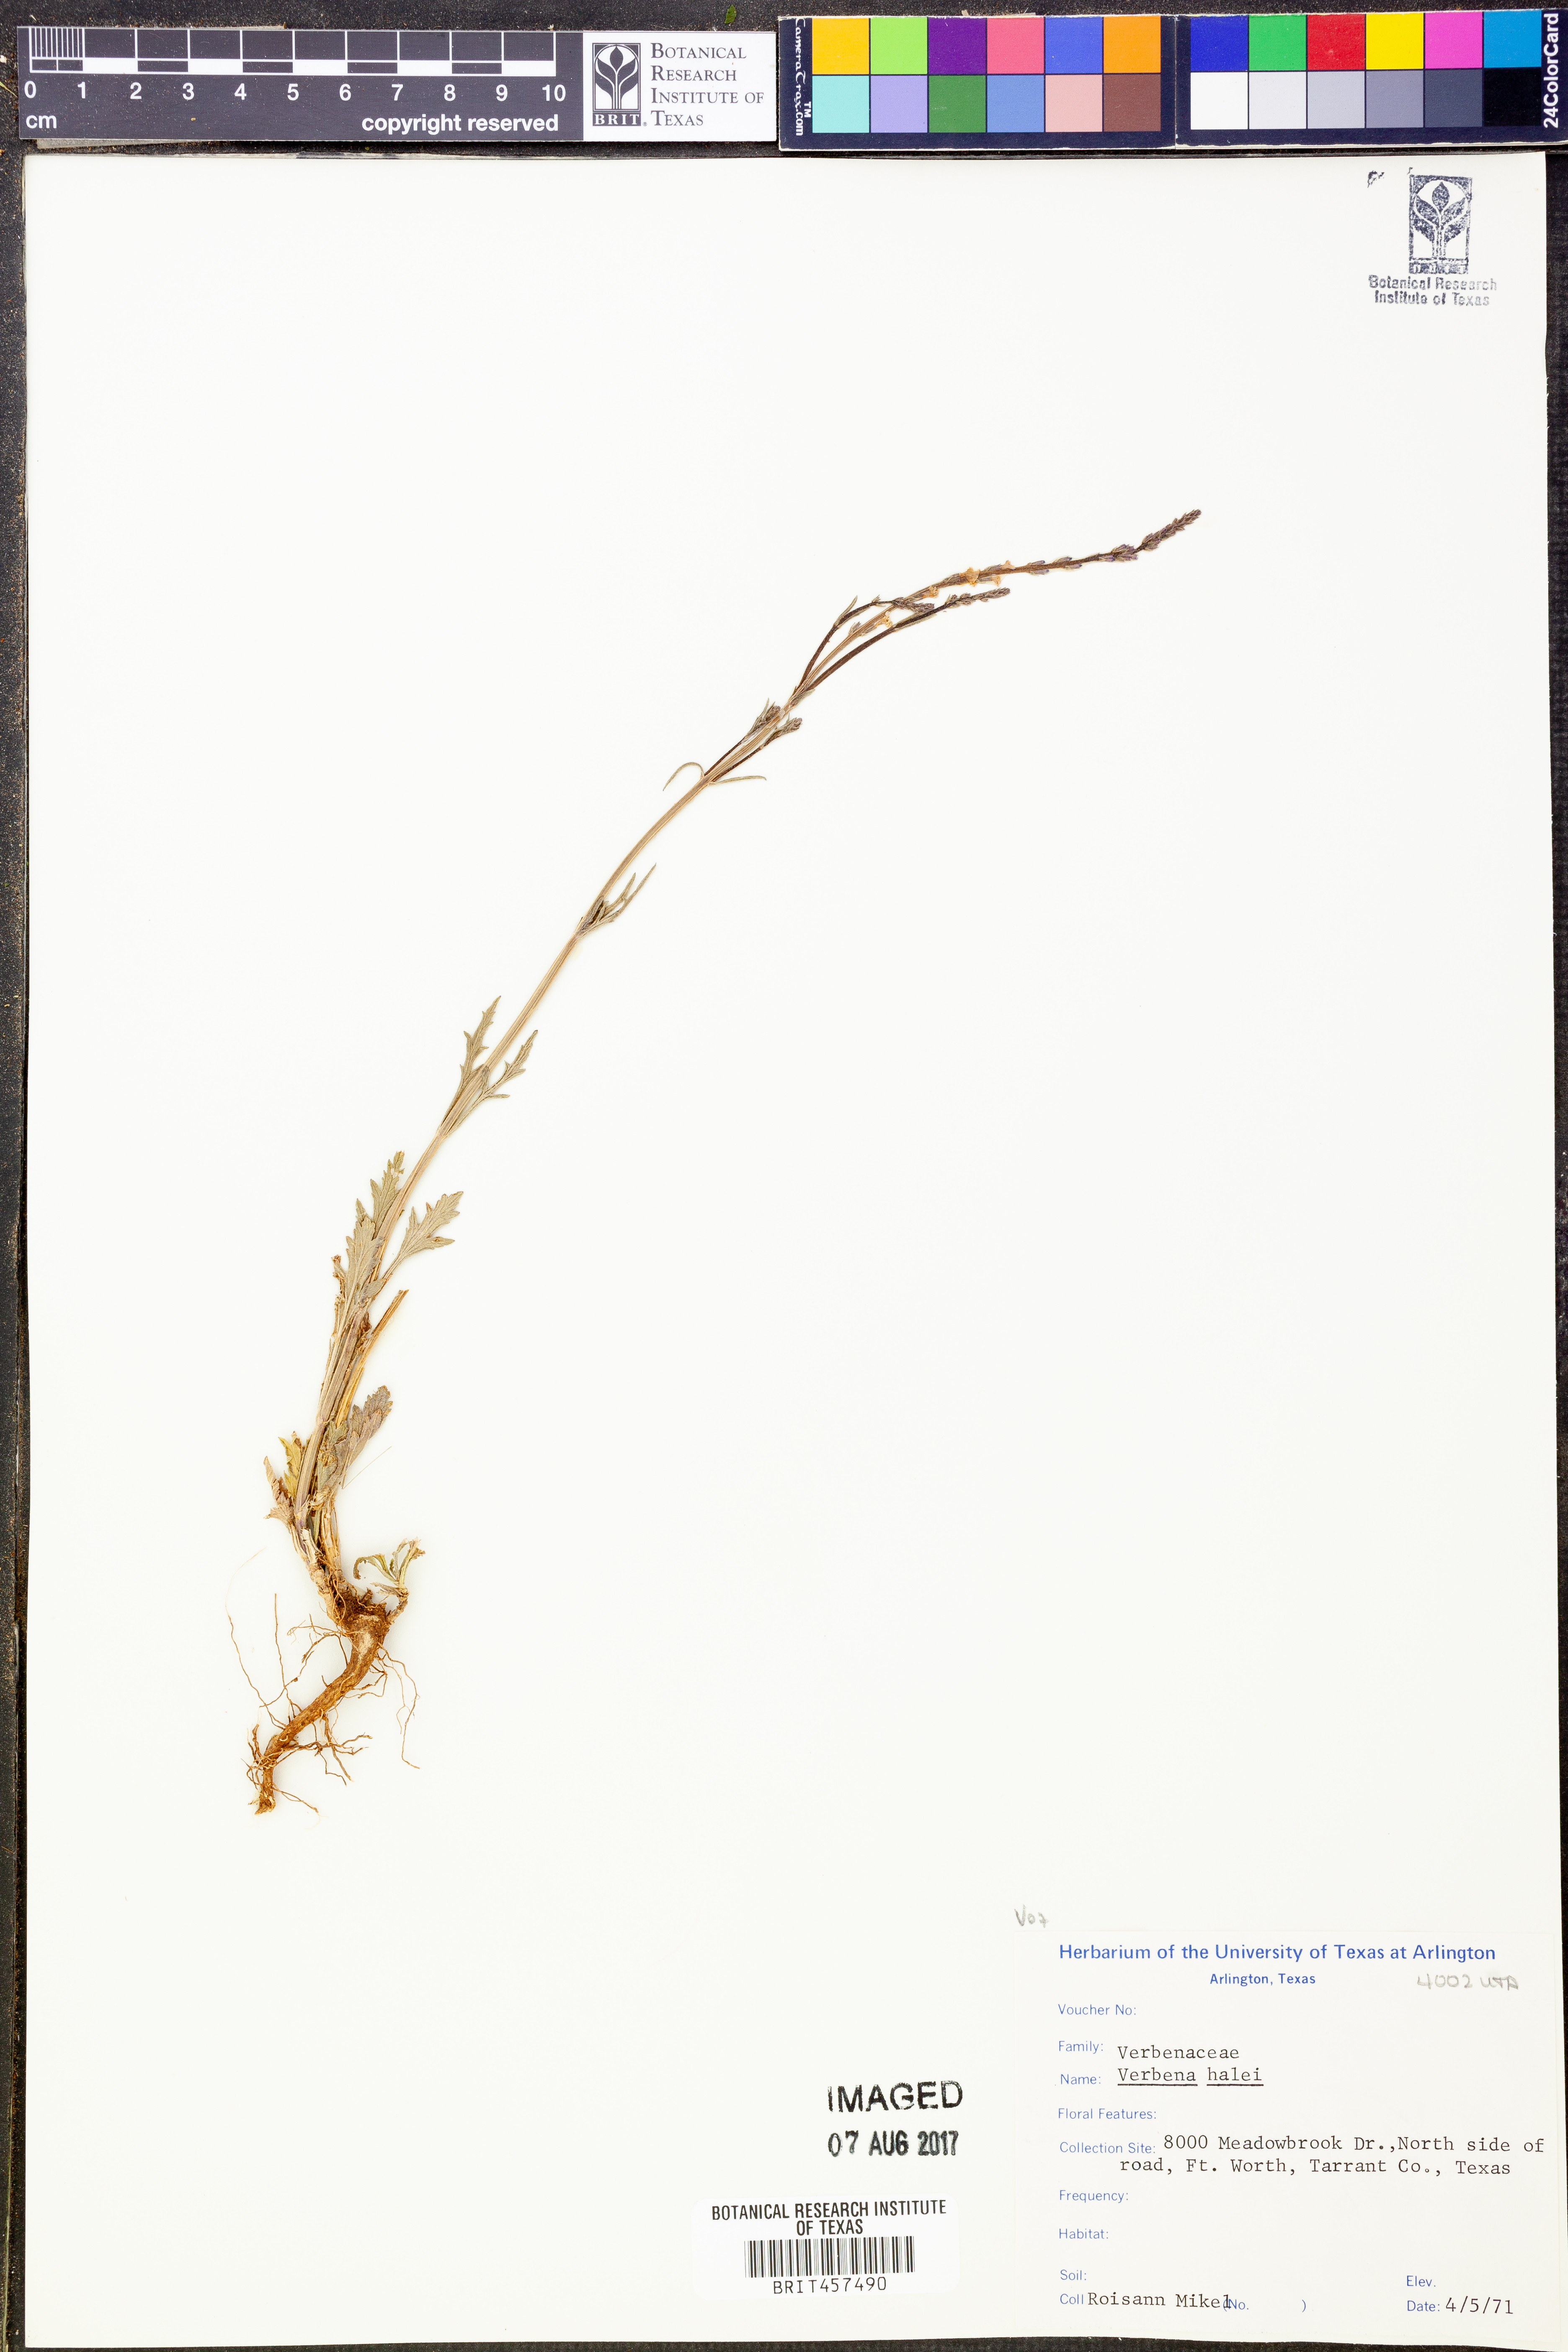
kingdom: Plantae
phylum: Tracheophyta
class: Magnoliopsida
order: Lamiales
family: Verbenaceae
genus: Verbena
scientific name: Verbena halei
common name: Texas vervain
